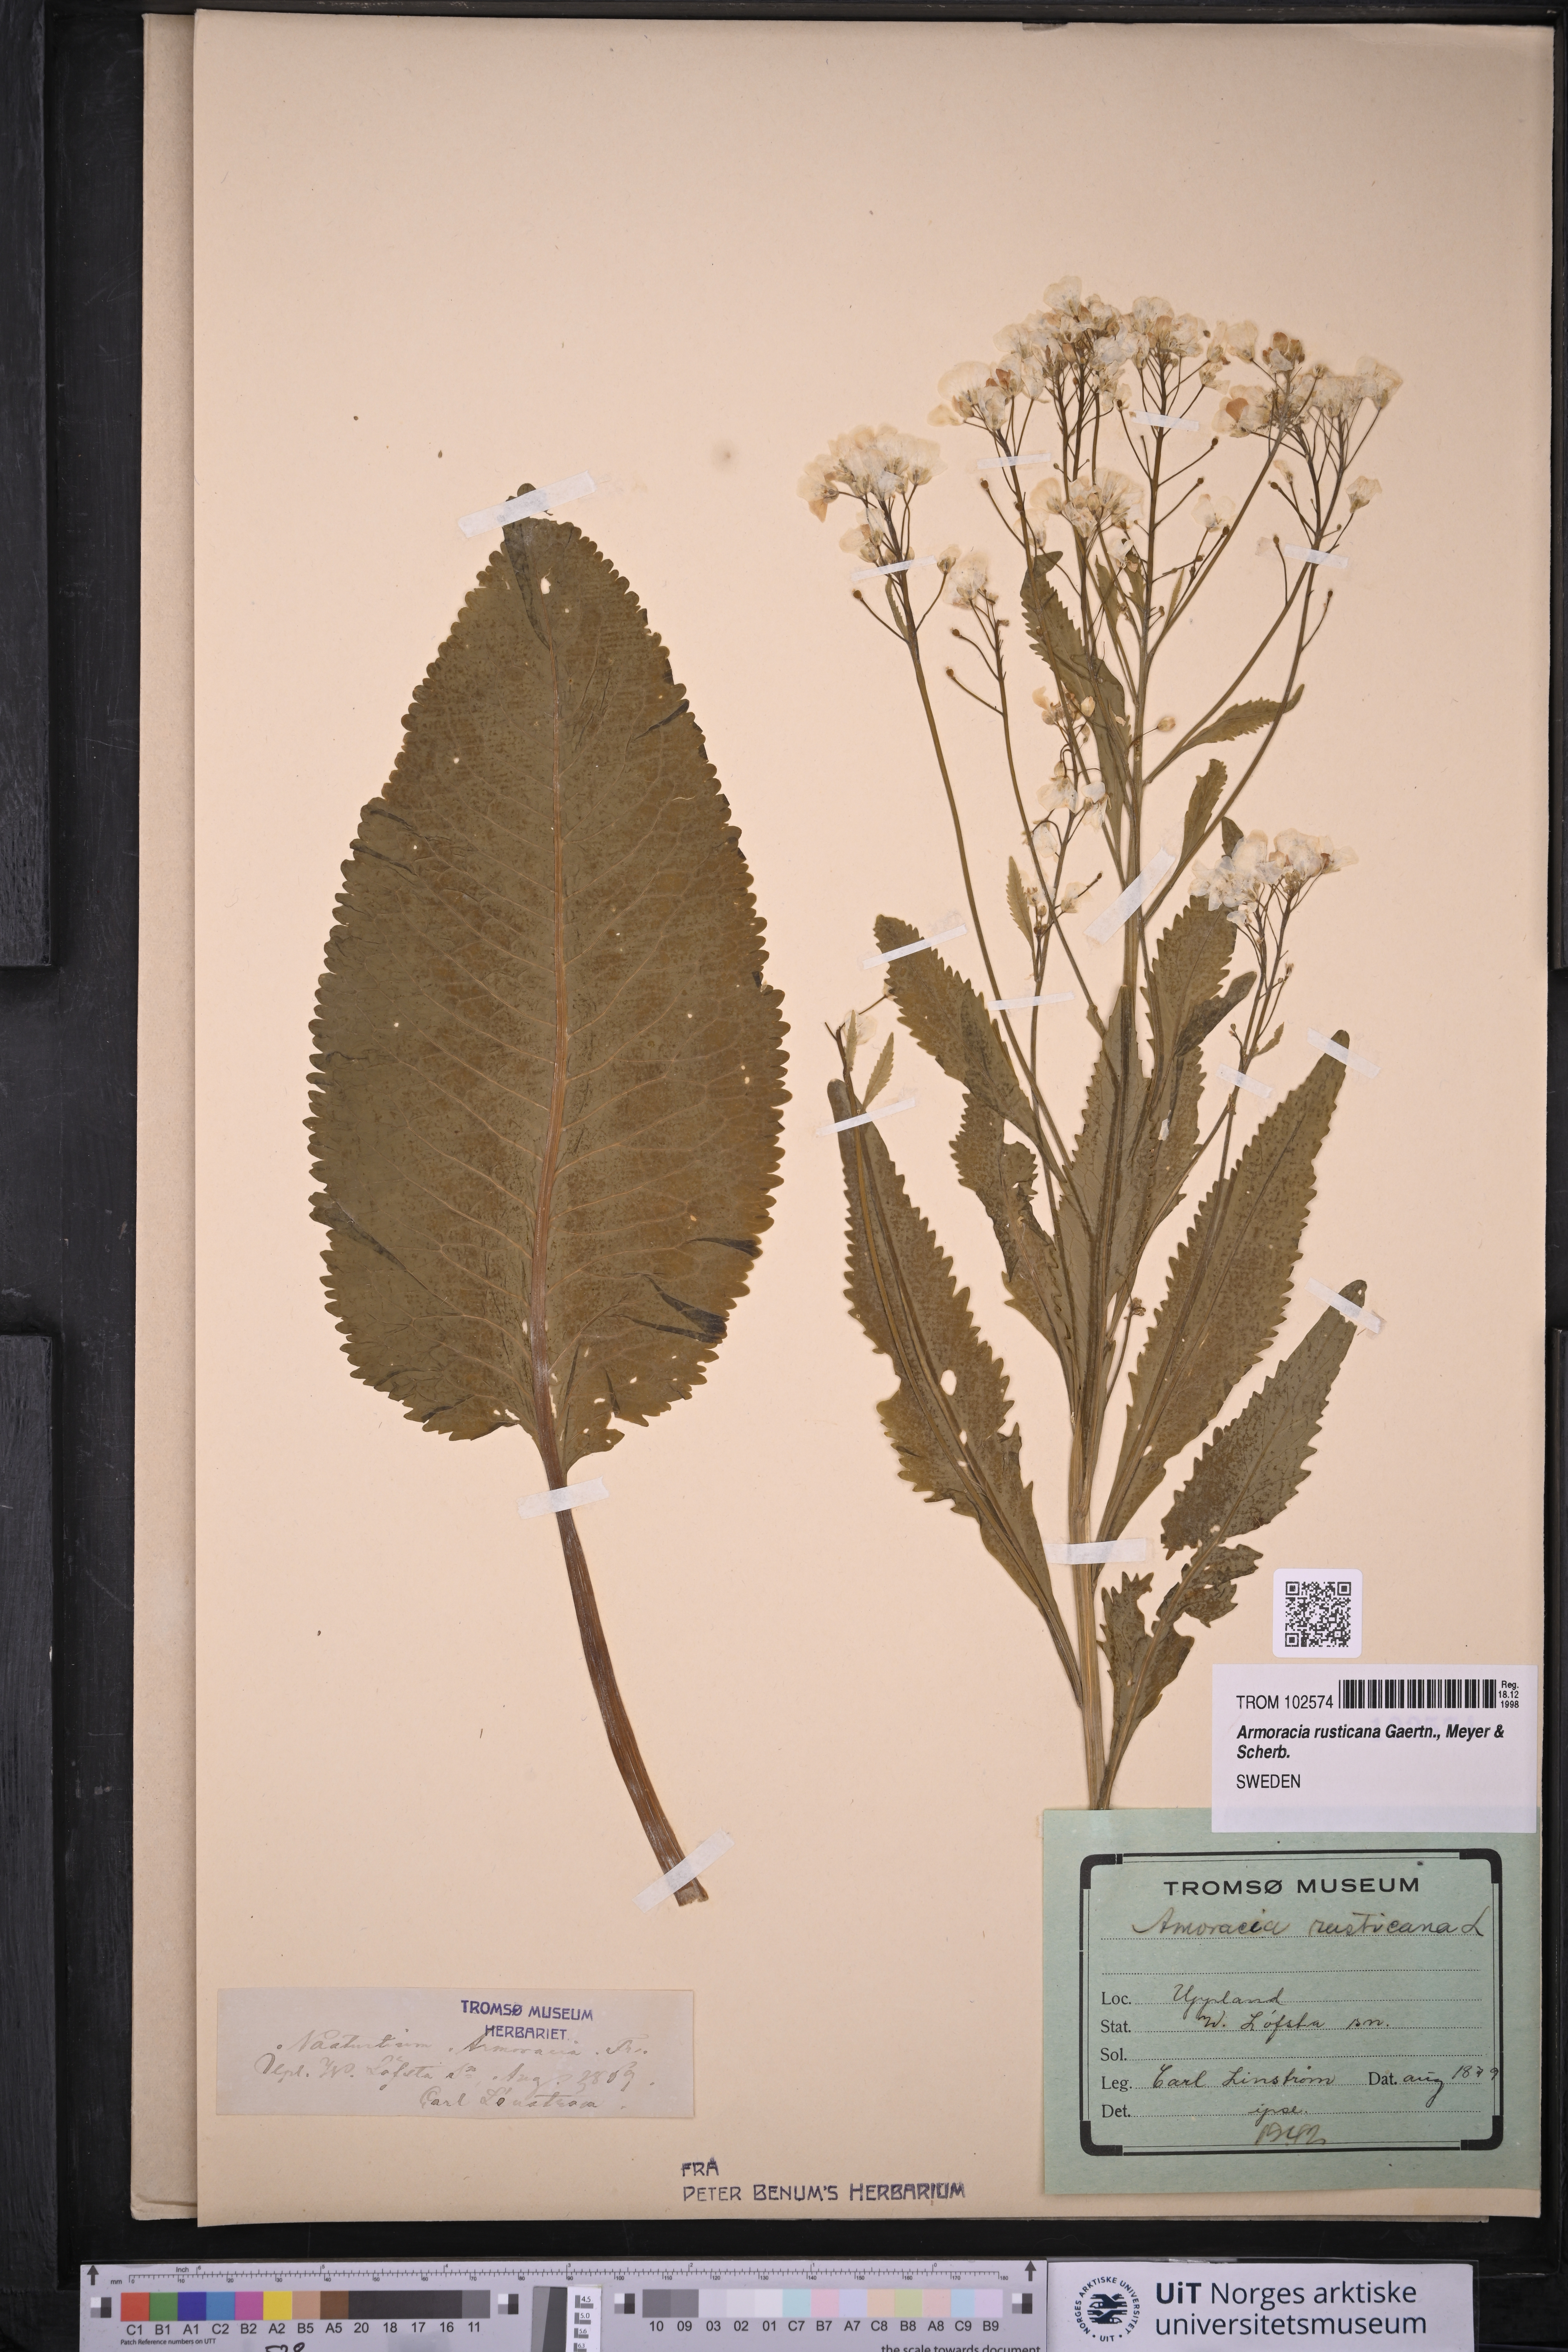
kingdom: Plantae
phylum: Tracheophyta
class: Magnoliopsida
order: Brassicales
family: Brassicaceae
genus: Armoracia
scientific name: Armoracia rusticana
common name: Horseradish
